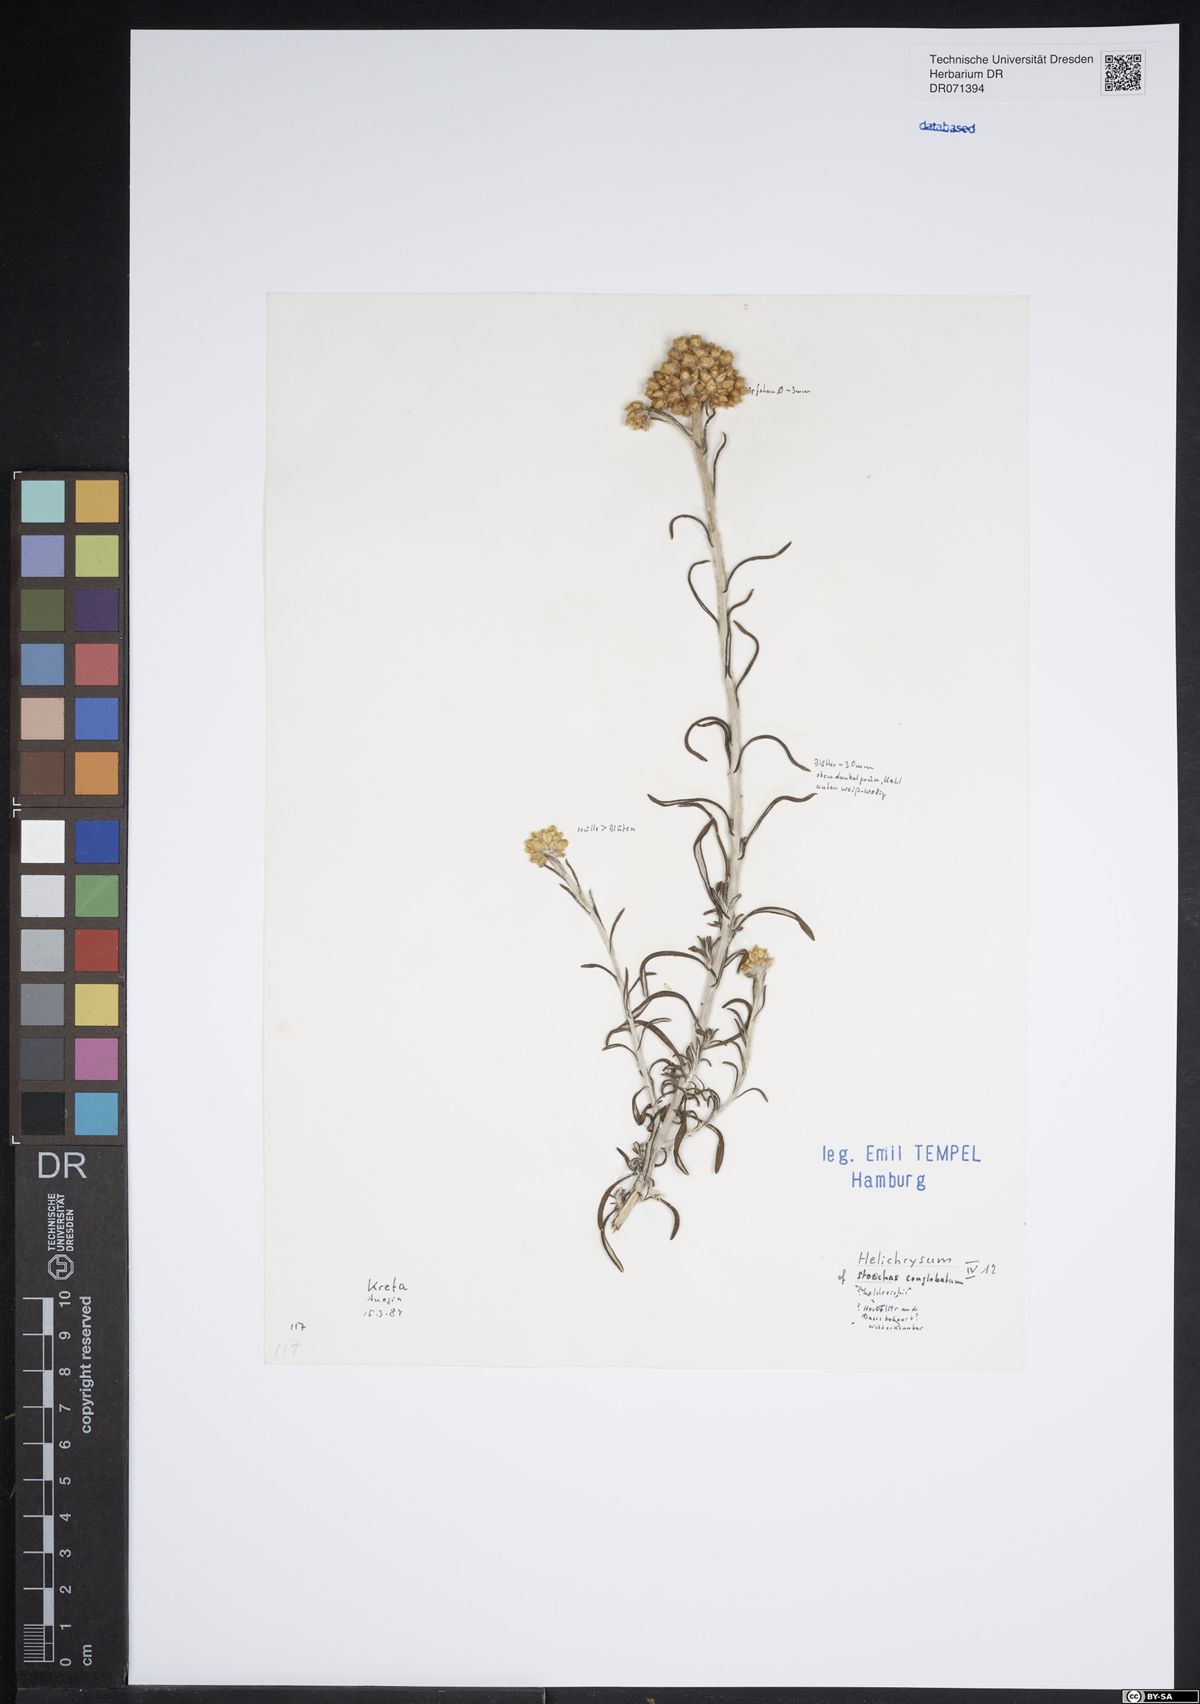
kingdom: Plantae
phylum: Tracheophyta
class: Magnoliopsida
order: Asterales
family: Asteraceae
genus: Helichrysum
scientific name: Helichrysum stoechas
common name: Goldilocks
